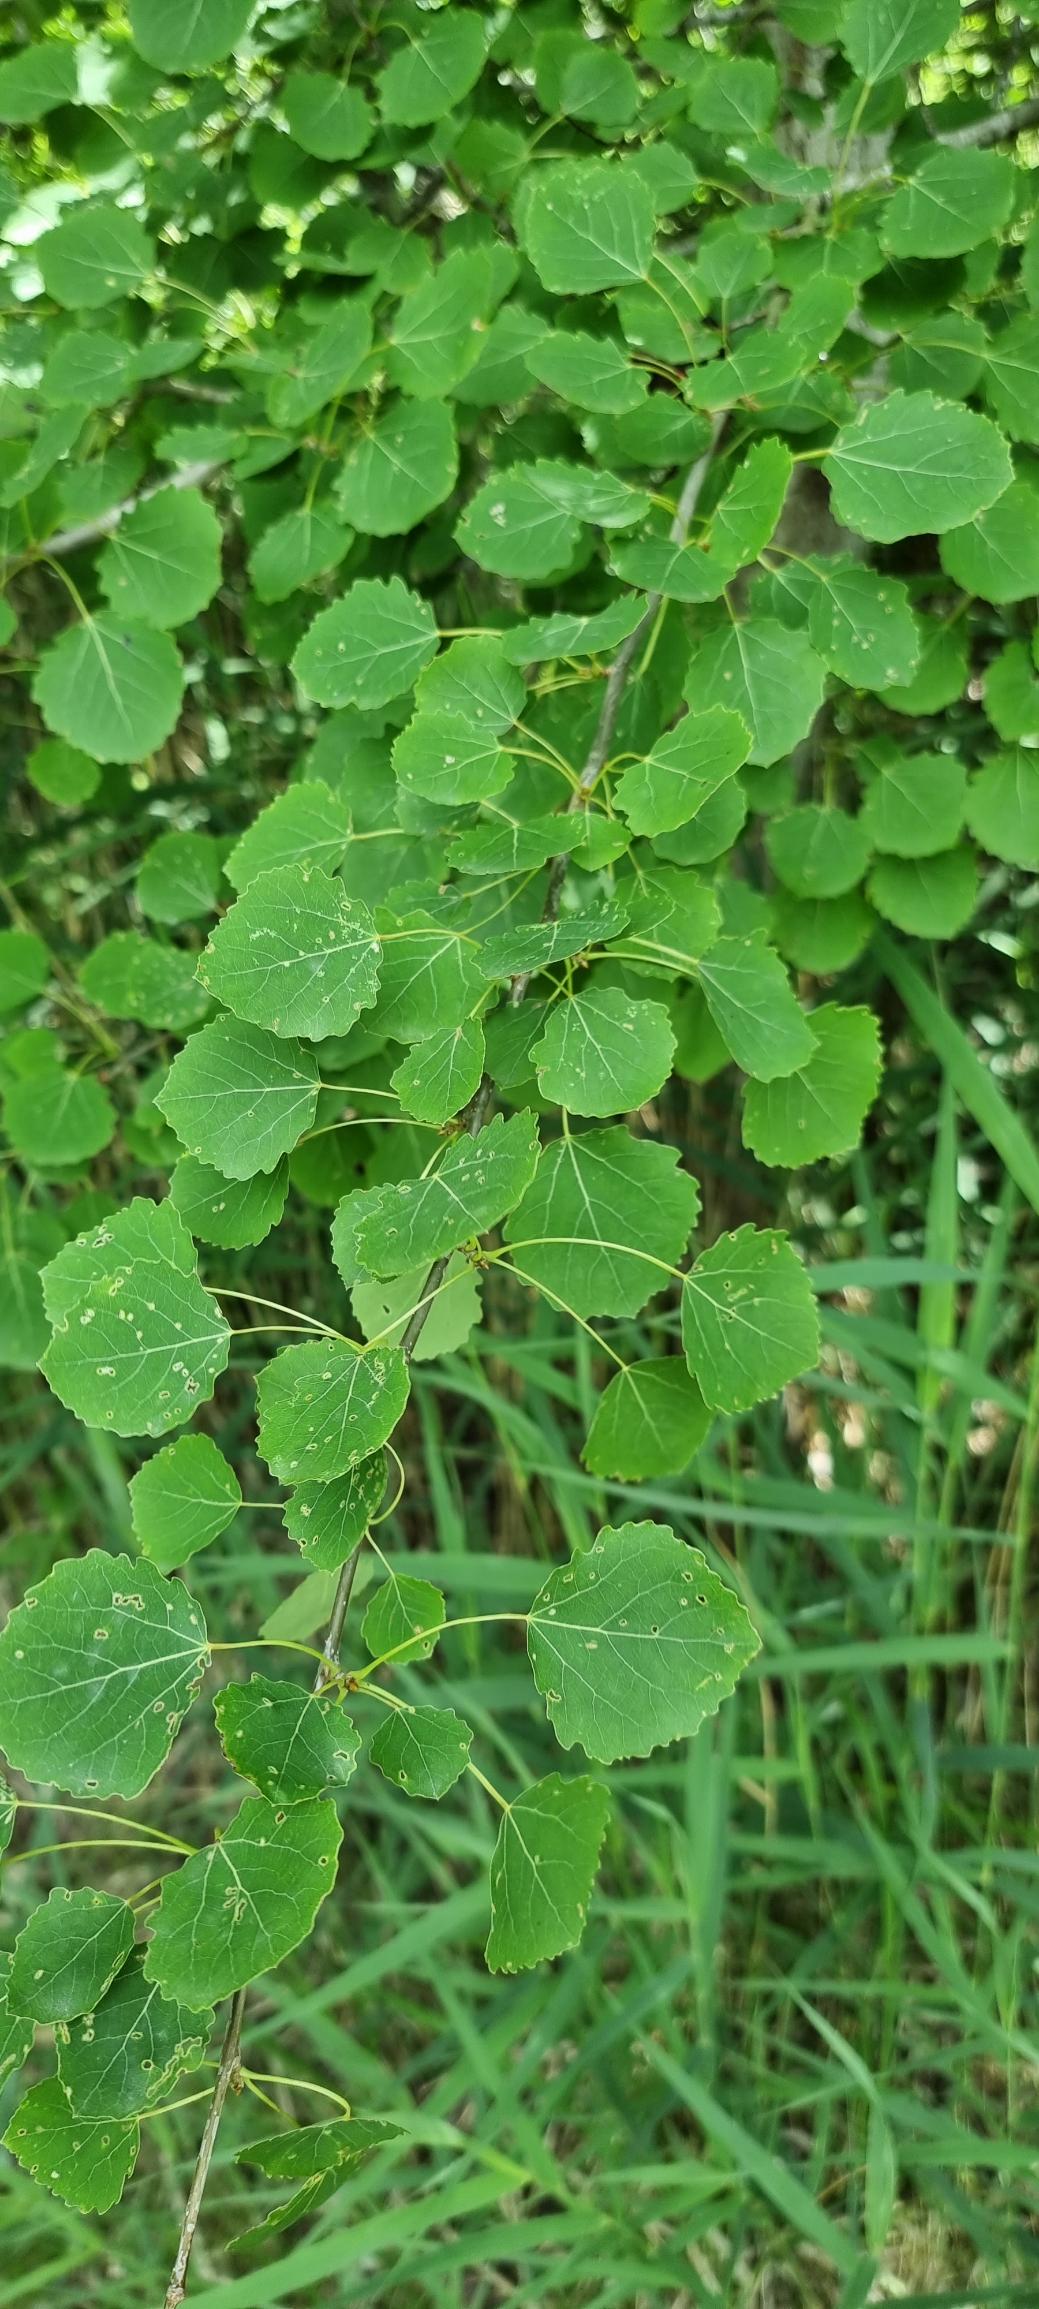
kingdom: Plantae
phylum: Tracheophyta
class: Magnoliopsida
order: Malpighiales
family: Salicaceae
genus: Populus
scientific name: Populus tremula
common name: Bævreasp
